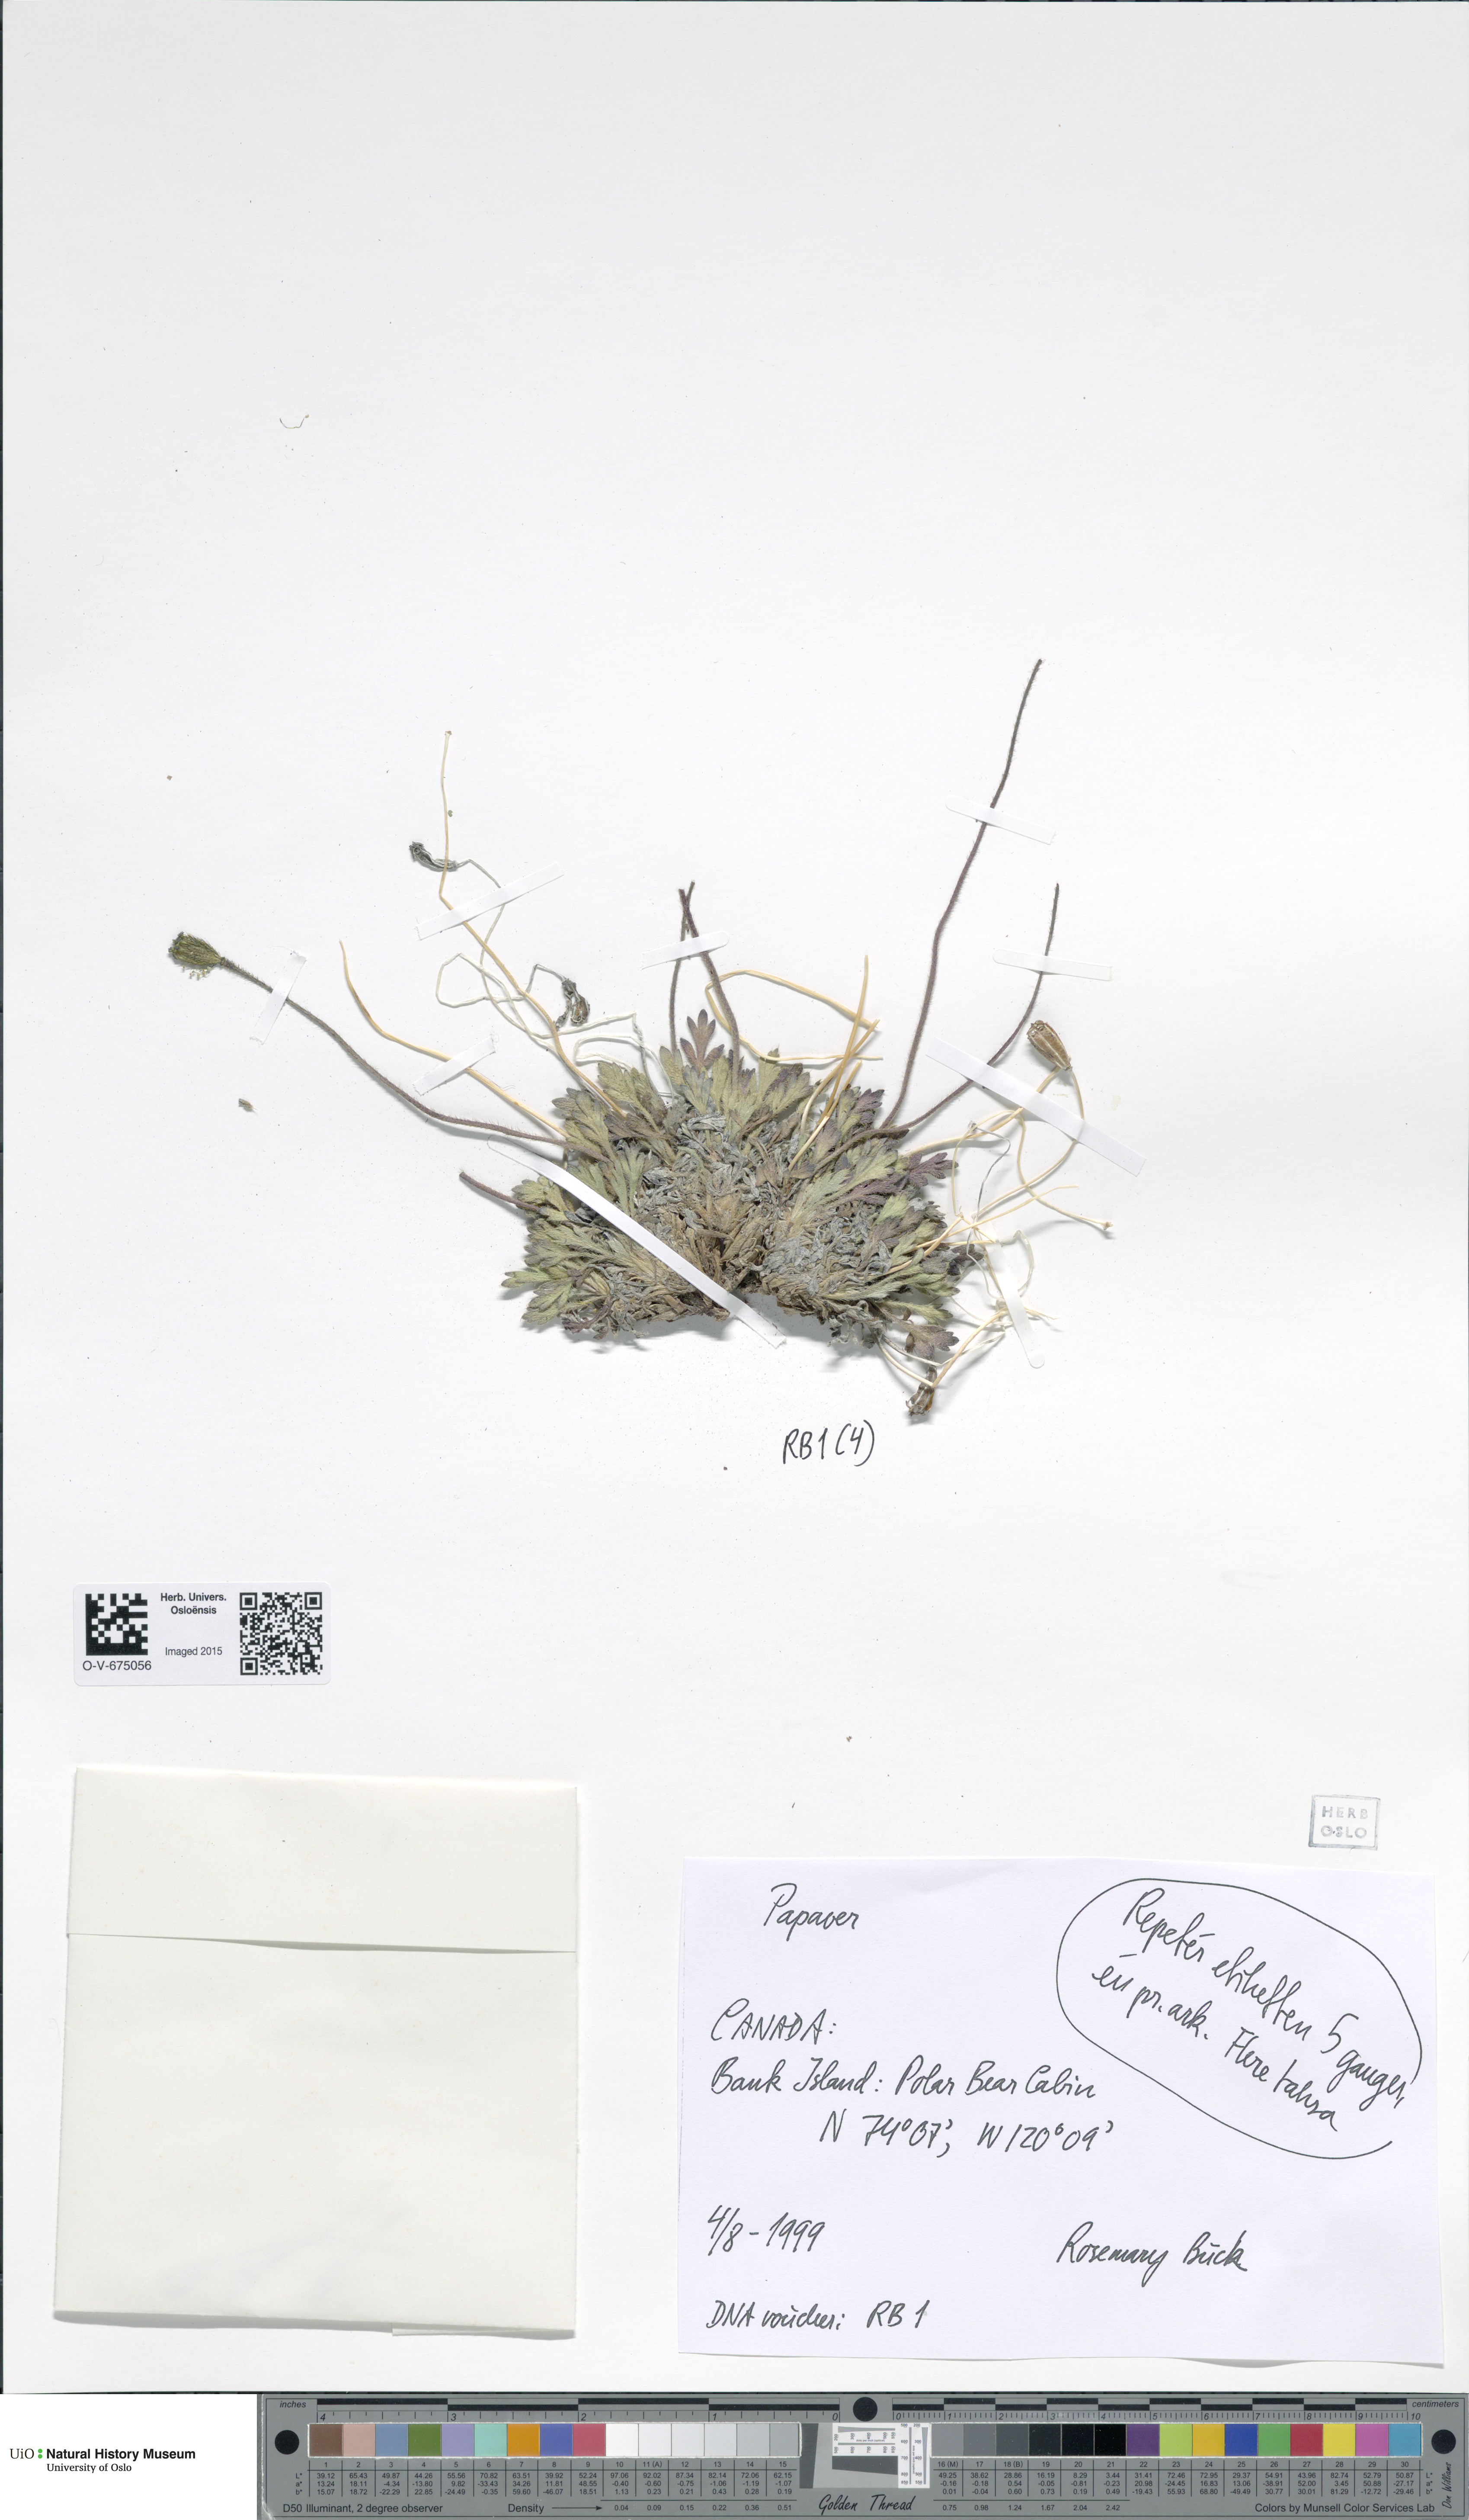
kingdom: Plantae
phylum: Tracheophyta
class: Magnoliopsida
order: Ranunculales
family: Papaveraceae
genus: Papaver
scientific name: Papaver
